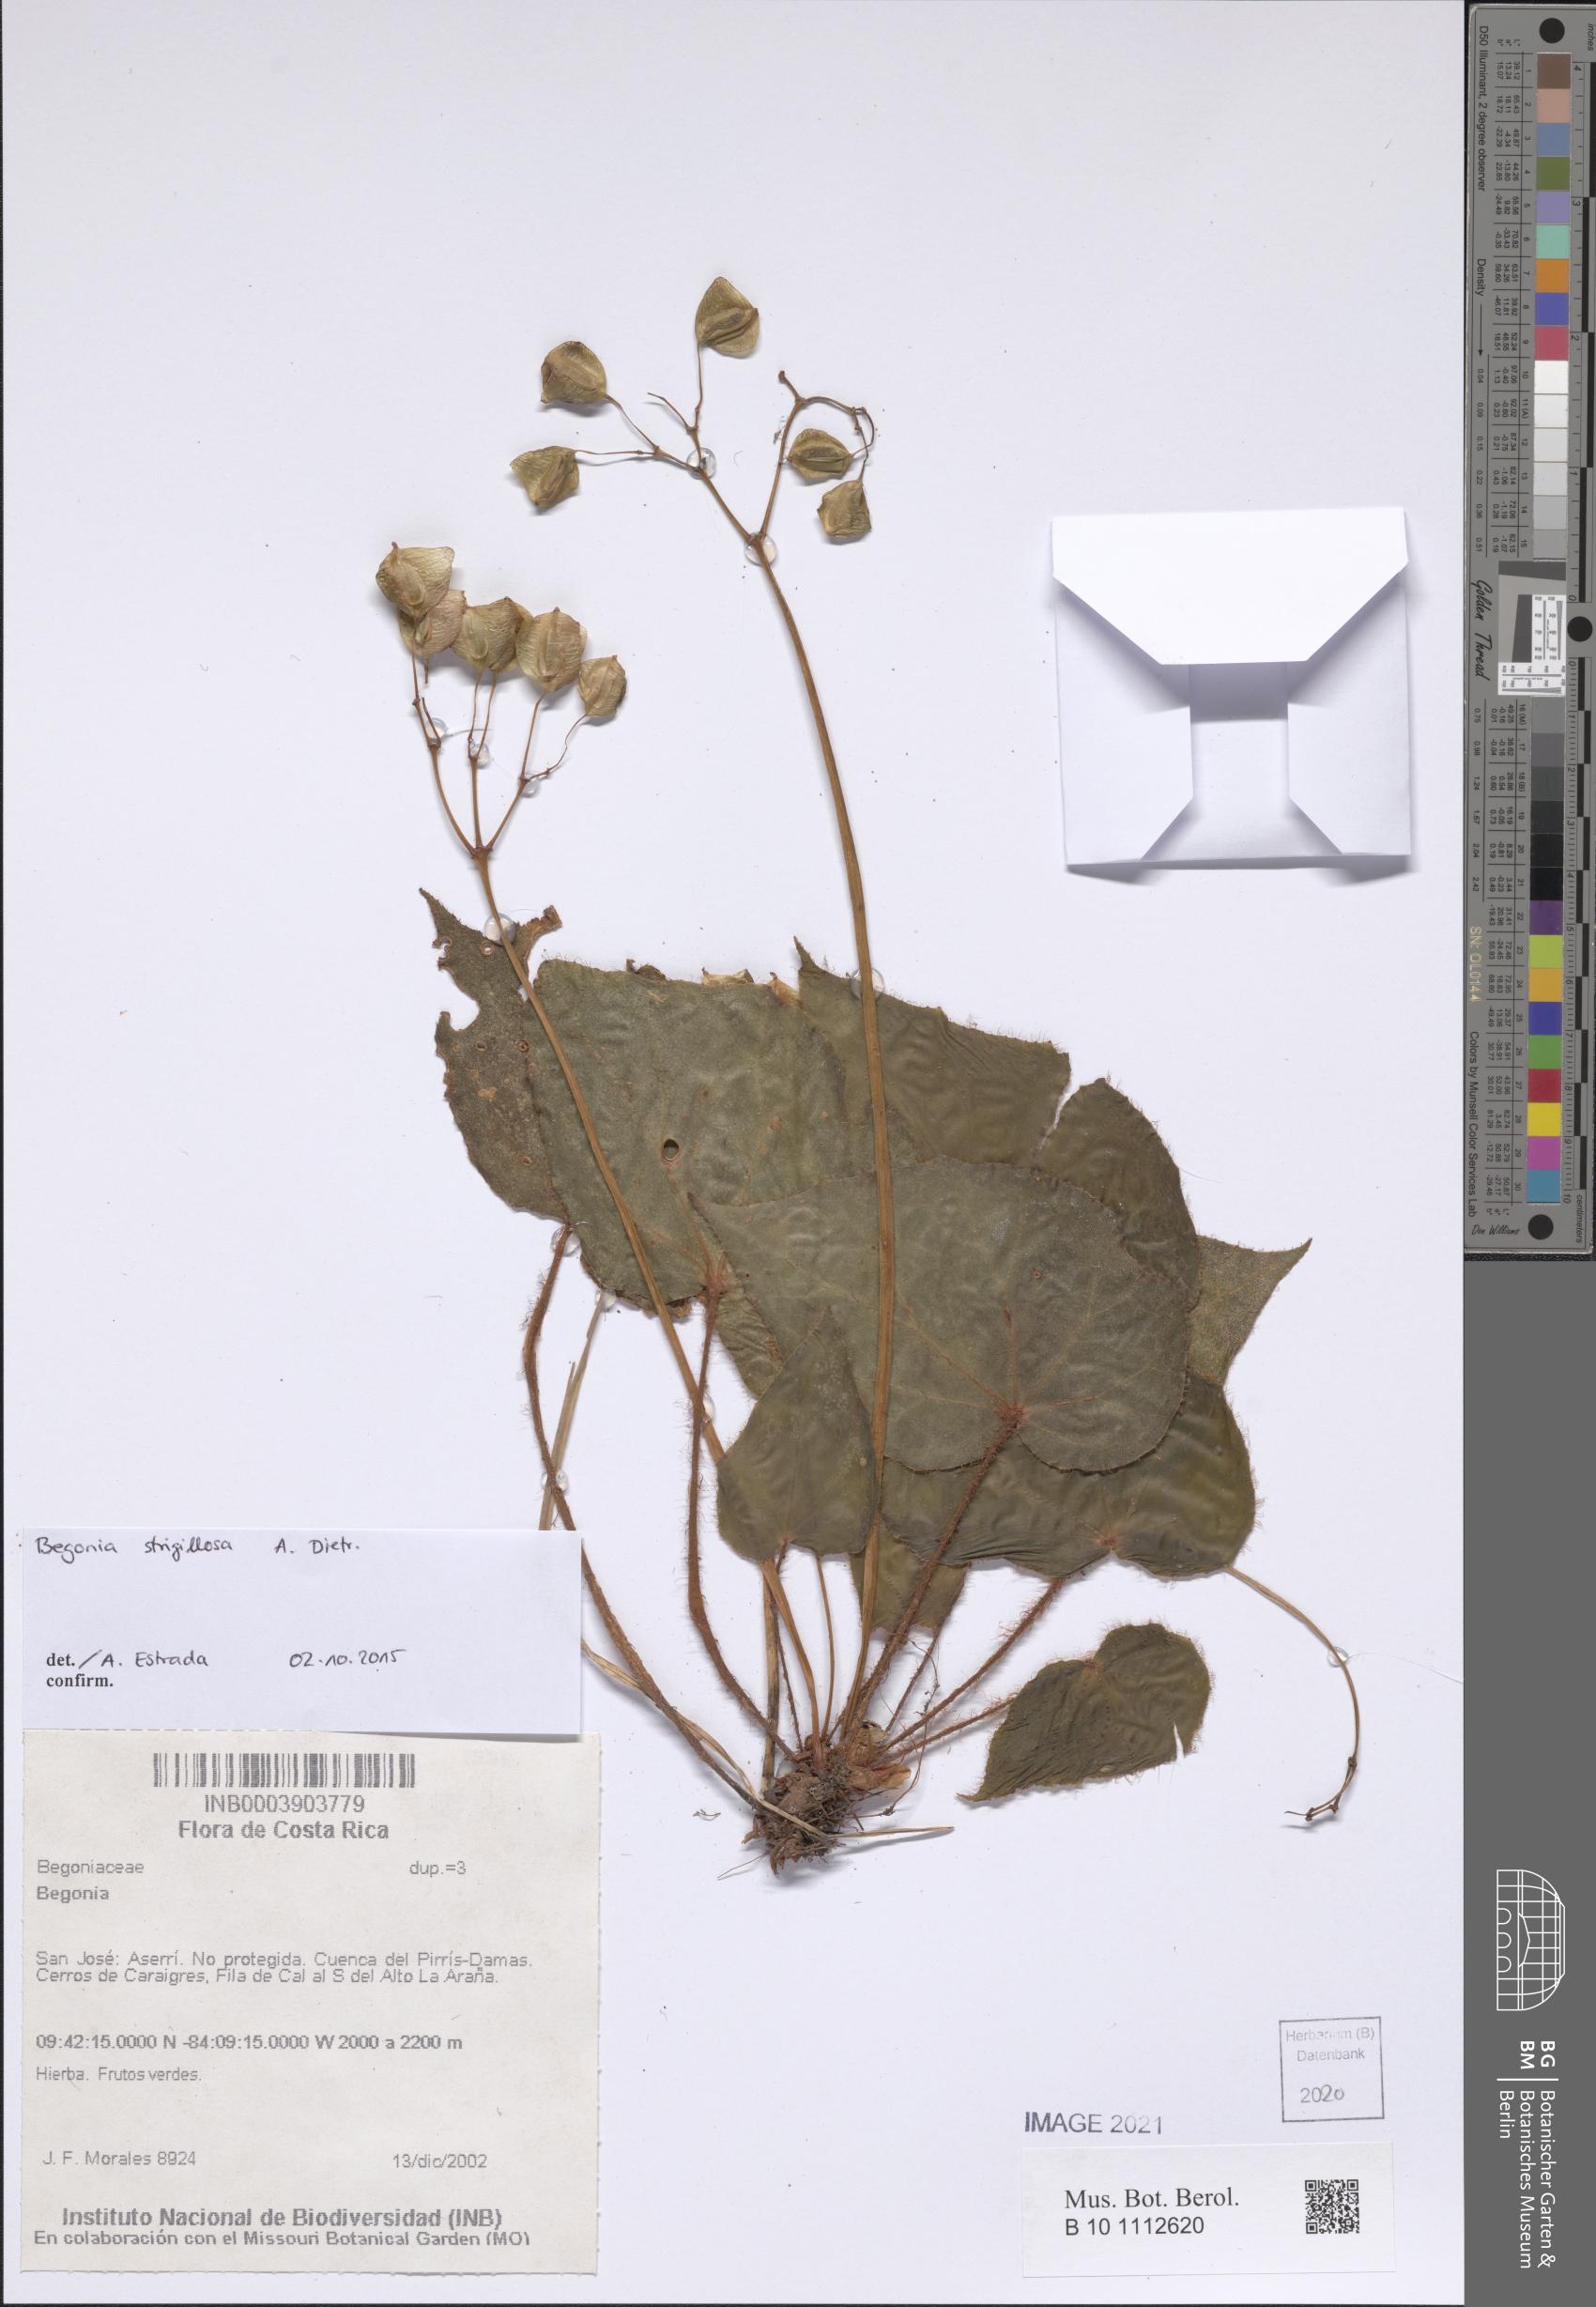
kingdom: Plantae
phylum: Tracheophyta
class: Magnoliopsida
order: Cucurbitales
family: Begoniaceae
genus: Begonia
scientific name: Begonia
